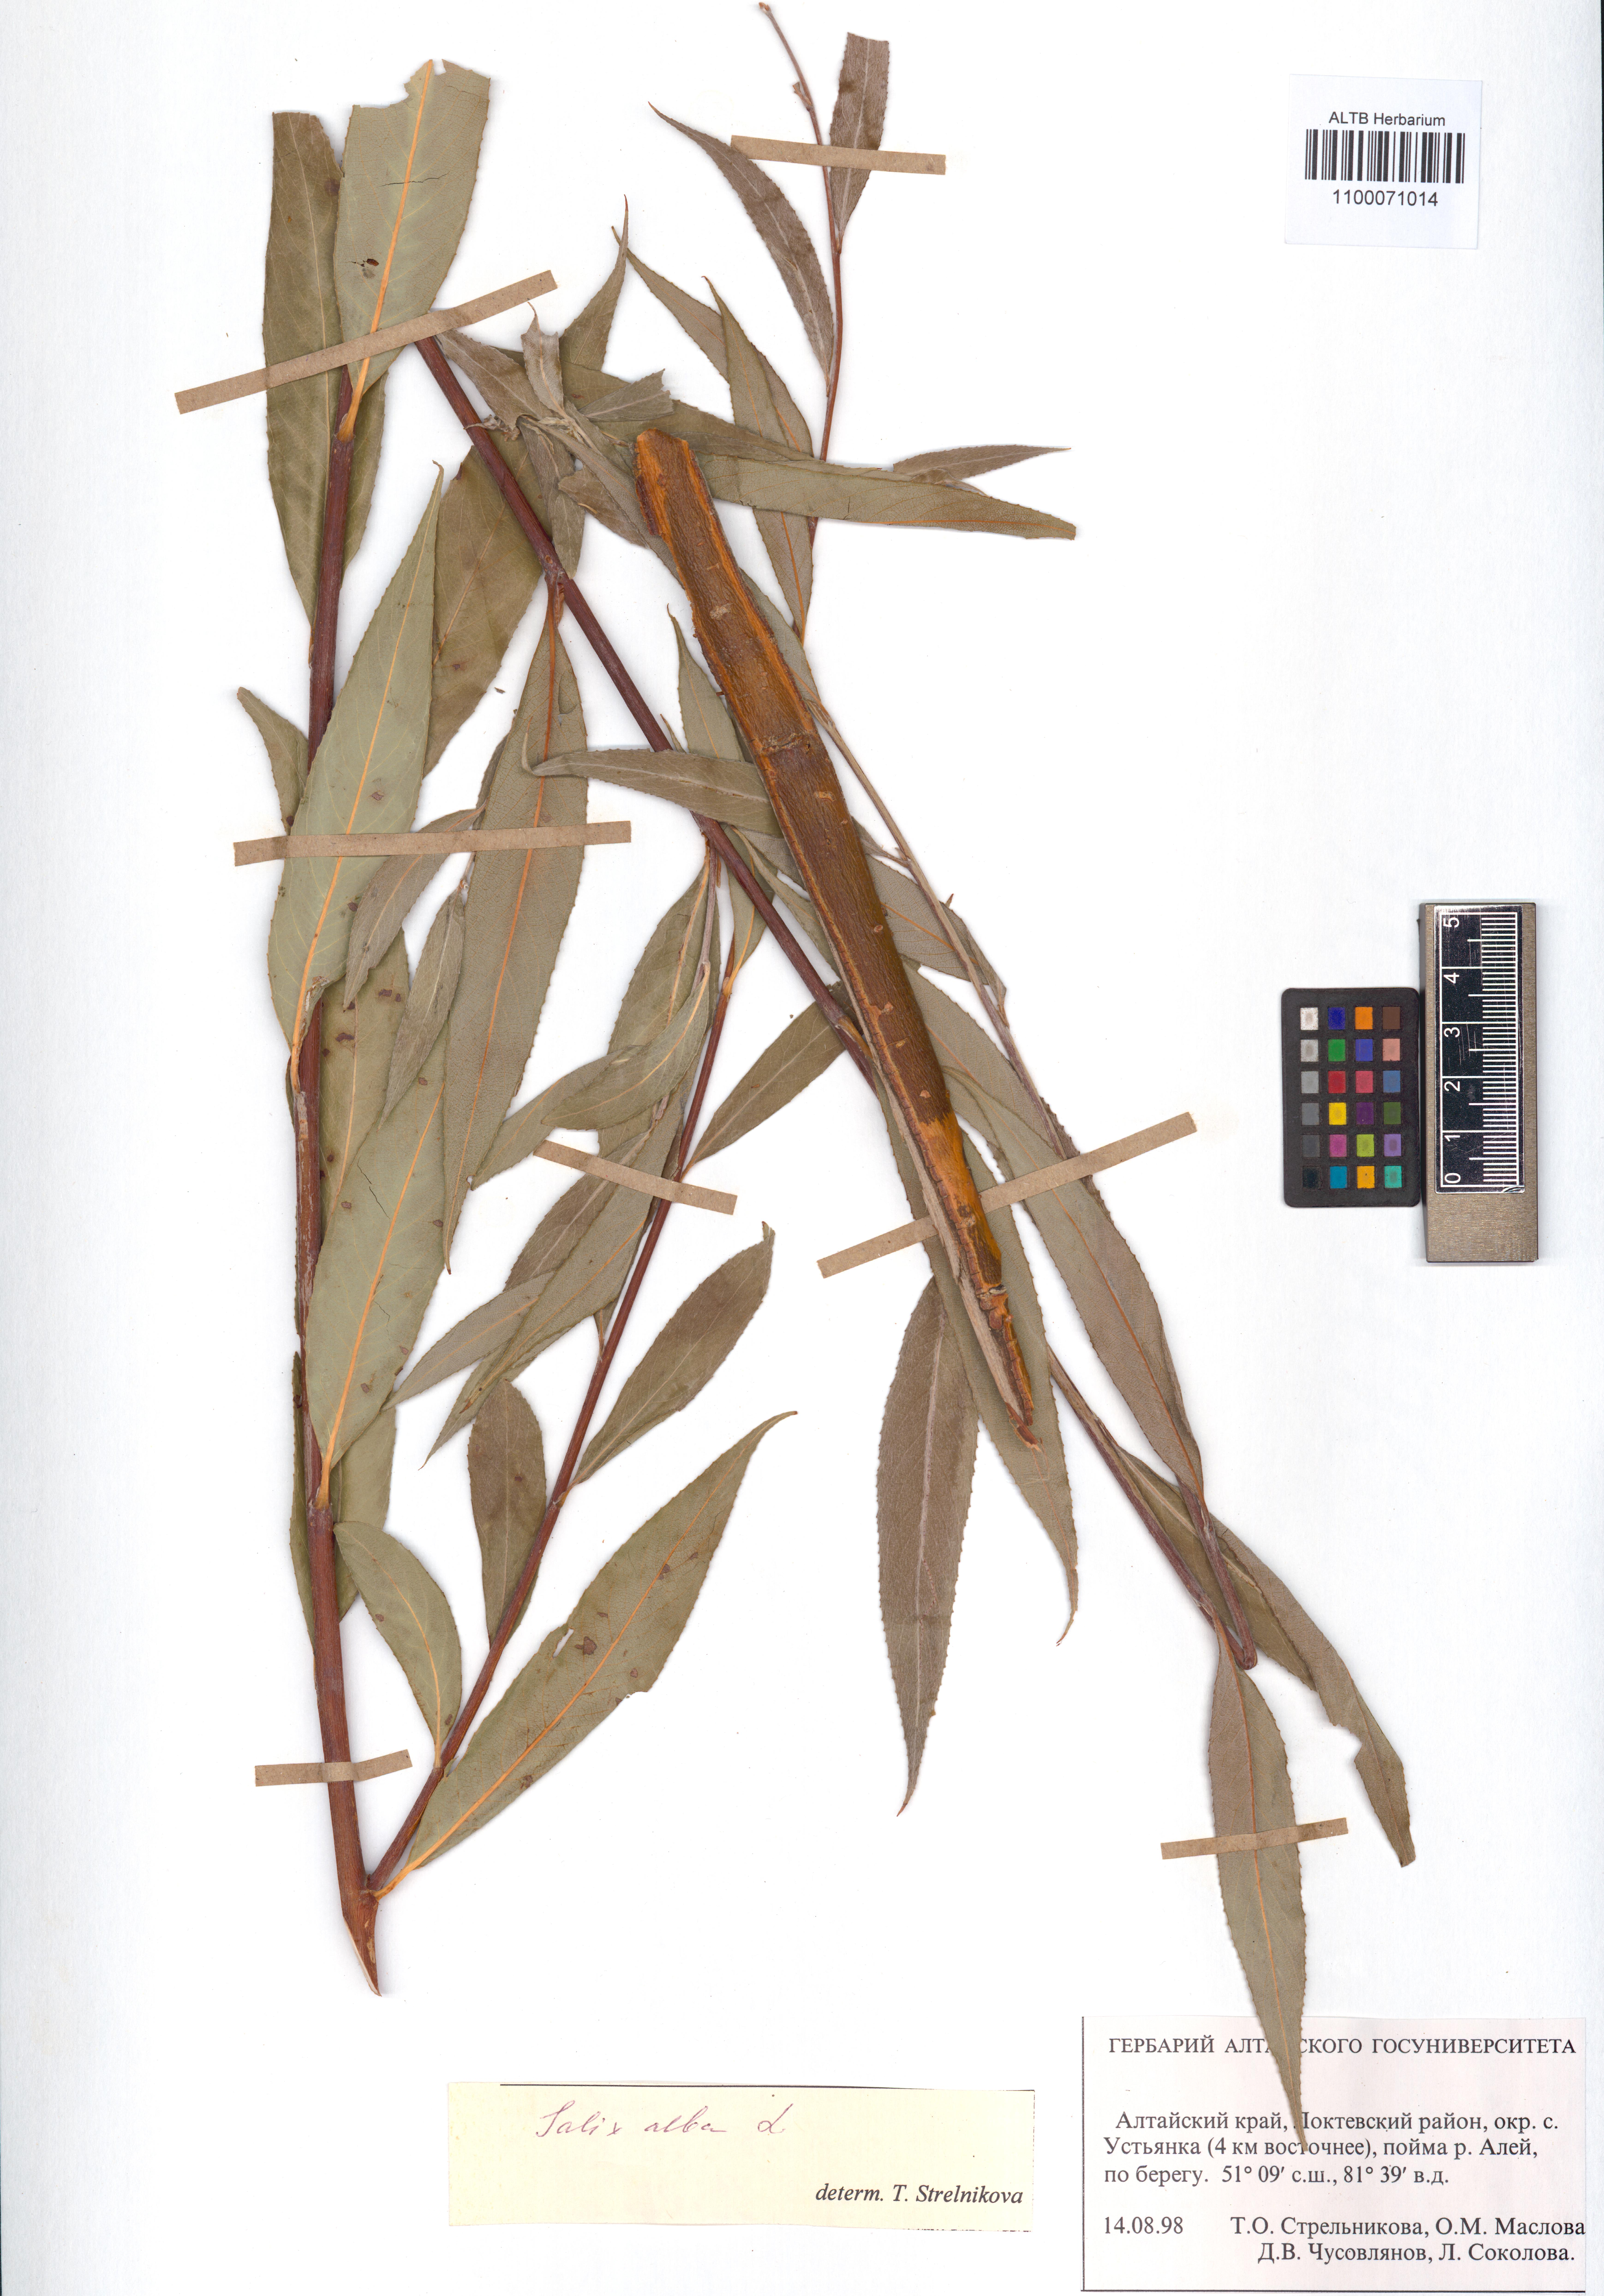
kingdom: Plantae
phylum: Tracheophyta
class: Magnoliopsida
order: Malpighiales
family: Salicaceae
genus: Salix
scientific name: Salix alba
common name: White willow
